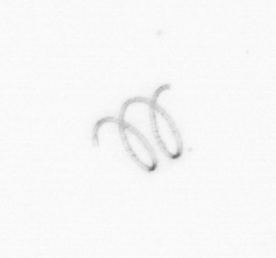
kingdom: Chromista
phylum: Ochrophyta
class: Bacillariophyceae
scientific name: Bacillariophyceae
